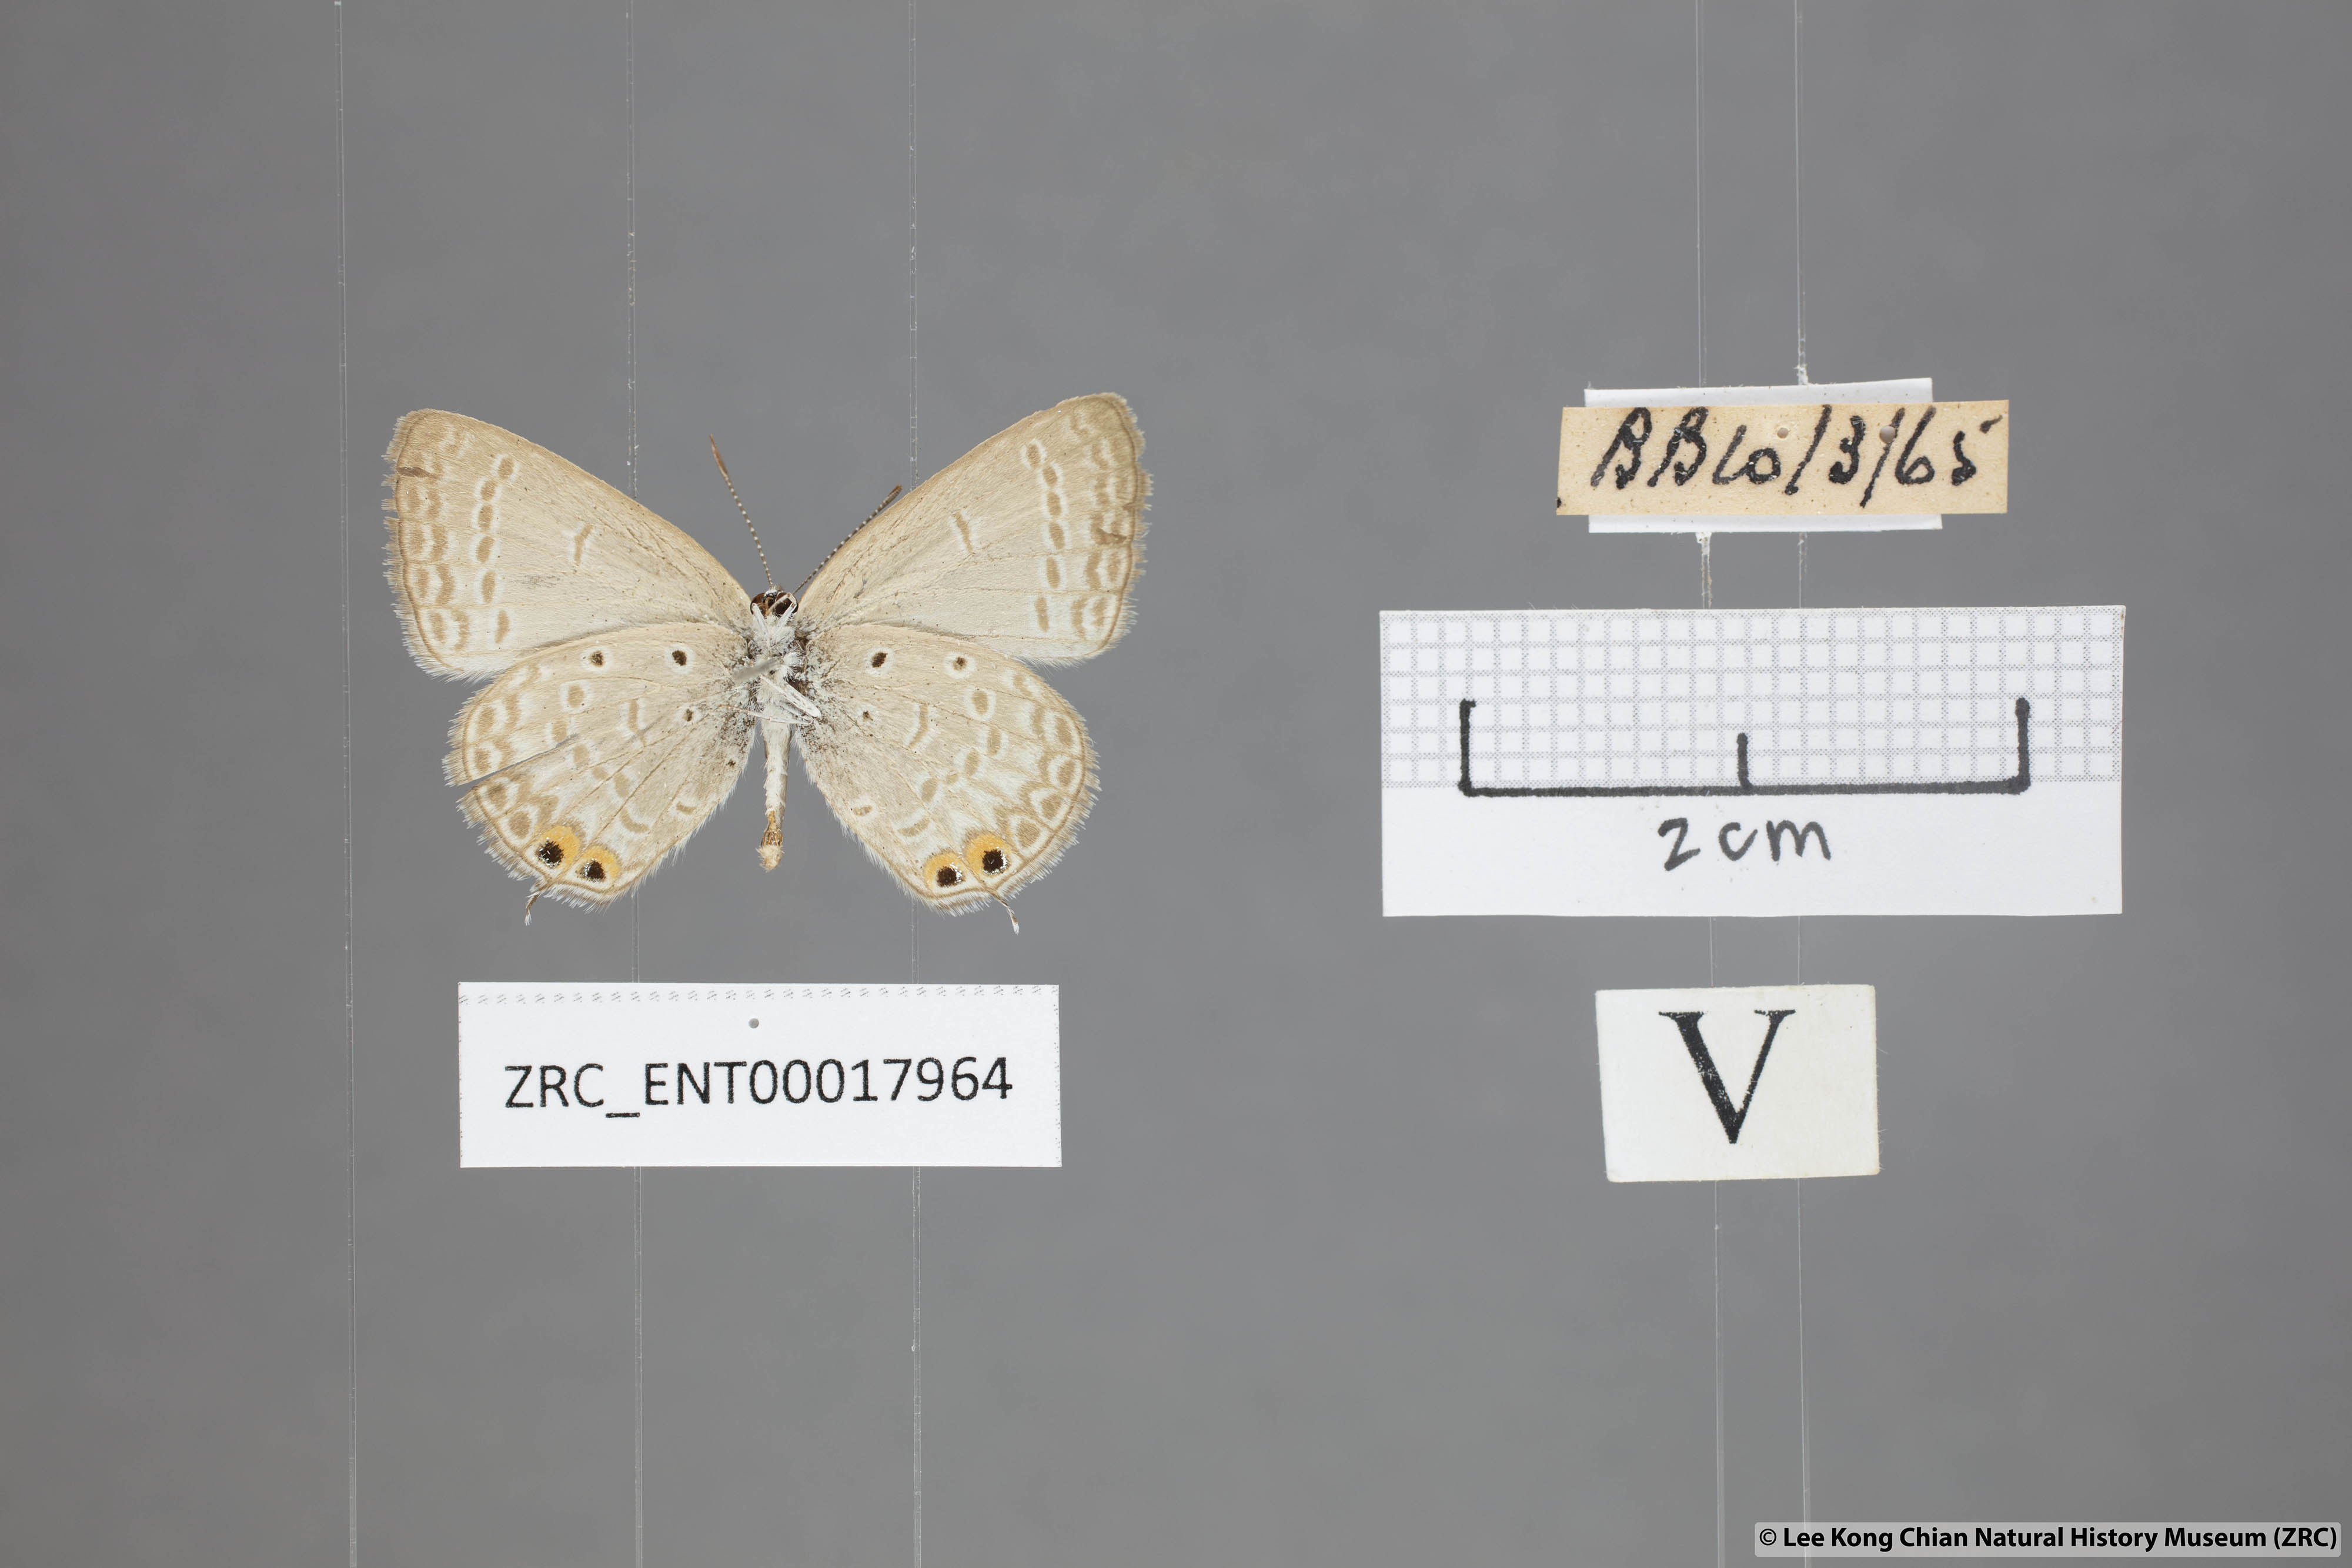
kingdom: Animalia
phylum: Arthropoda
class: Insecta
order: Lepidoptera
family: Lycaenidae
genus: Euchrysops
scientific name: Euchrysops cnejus
